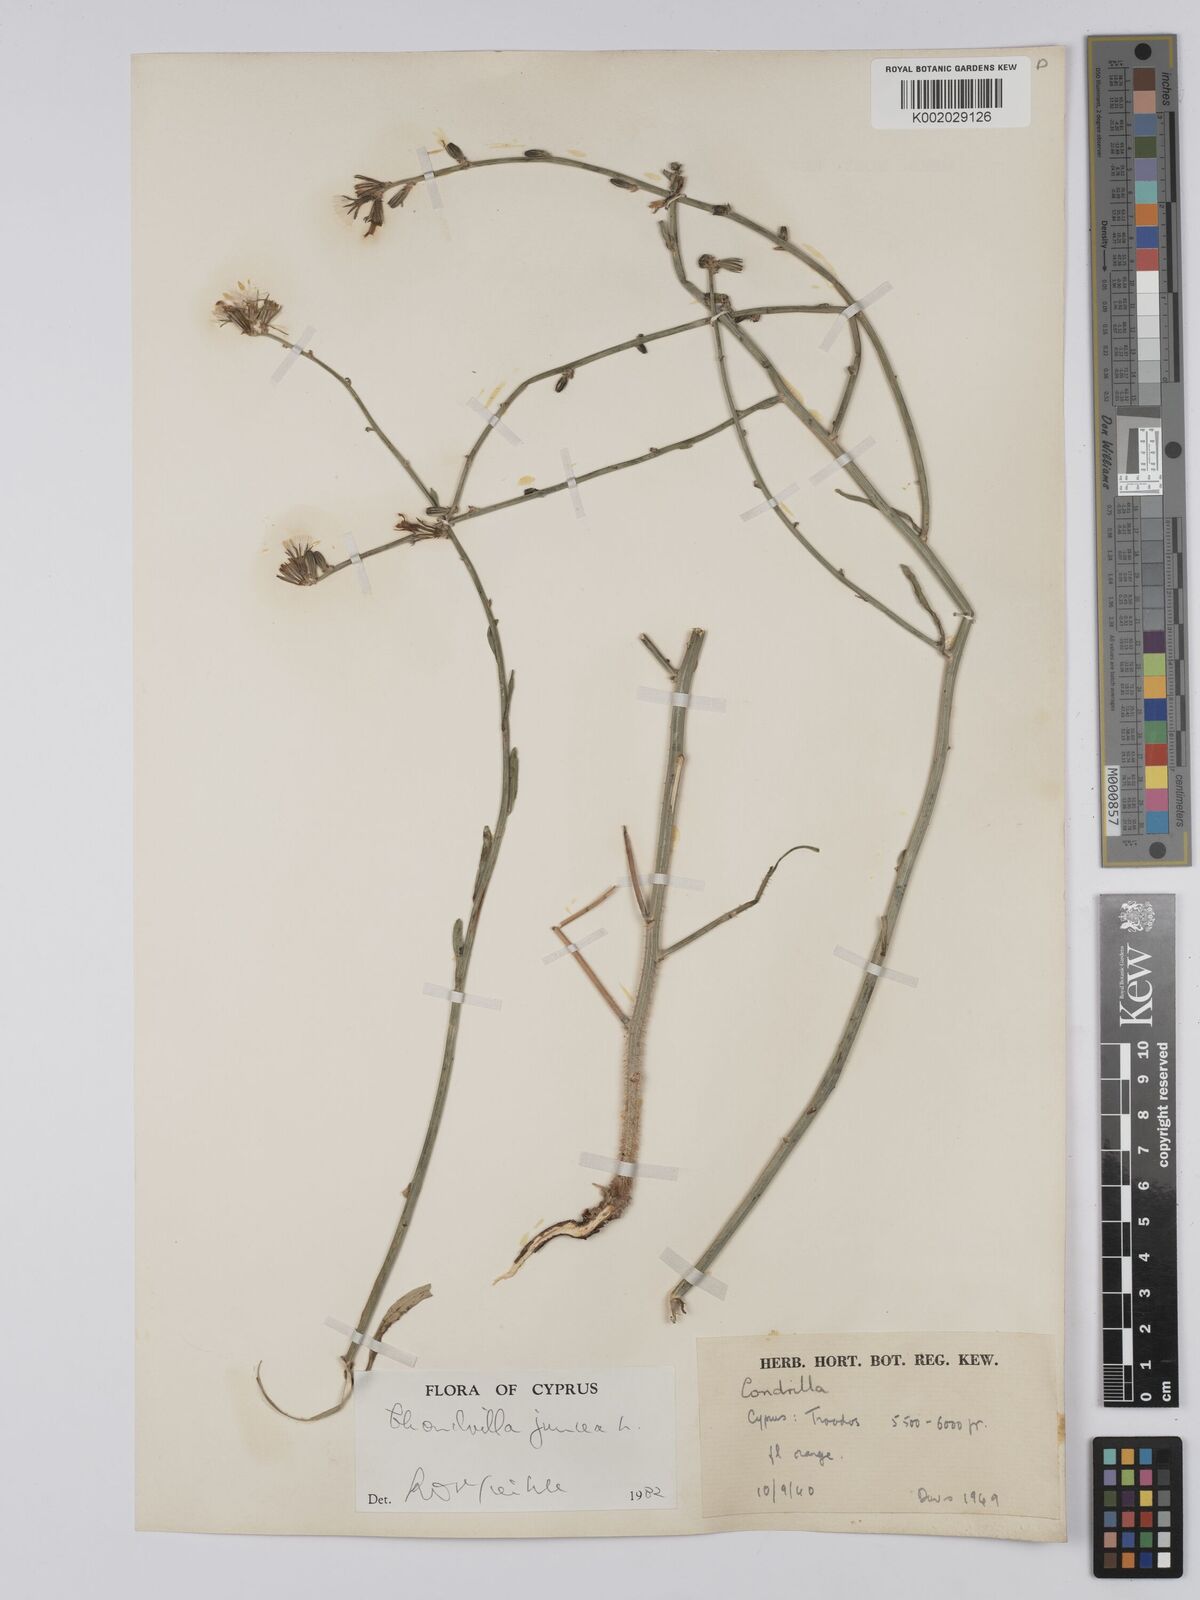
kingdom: Plantae
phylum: Tracheophyta
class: Magnoliopsida
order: Asterales
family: Asteraceae
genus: Chondrilla
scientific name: Chondrilla juncea
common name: Skeleton weed
